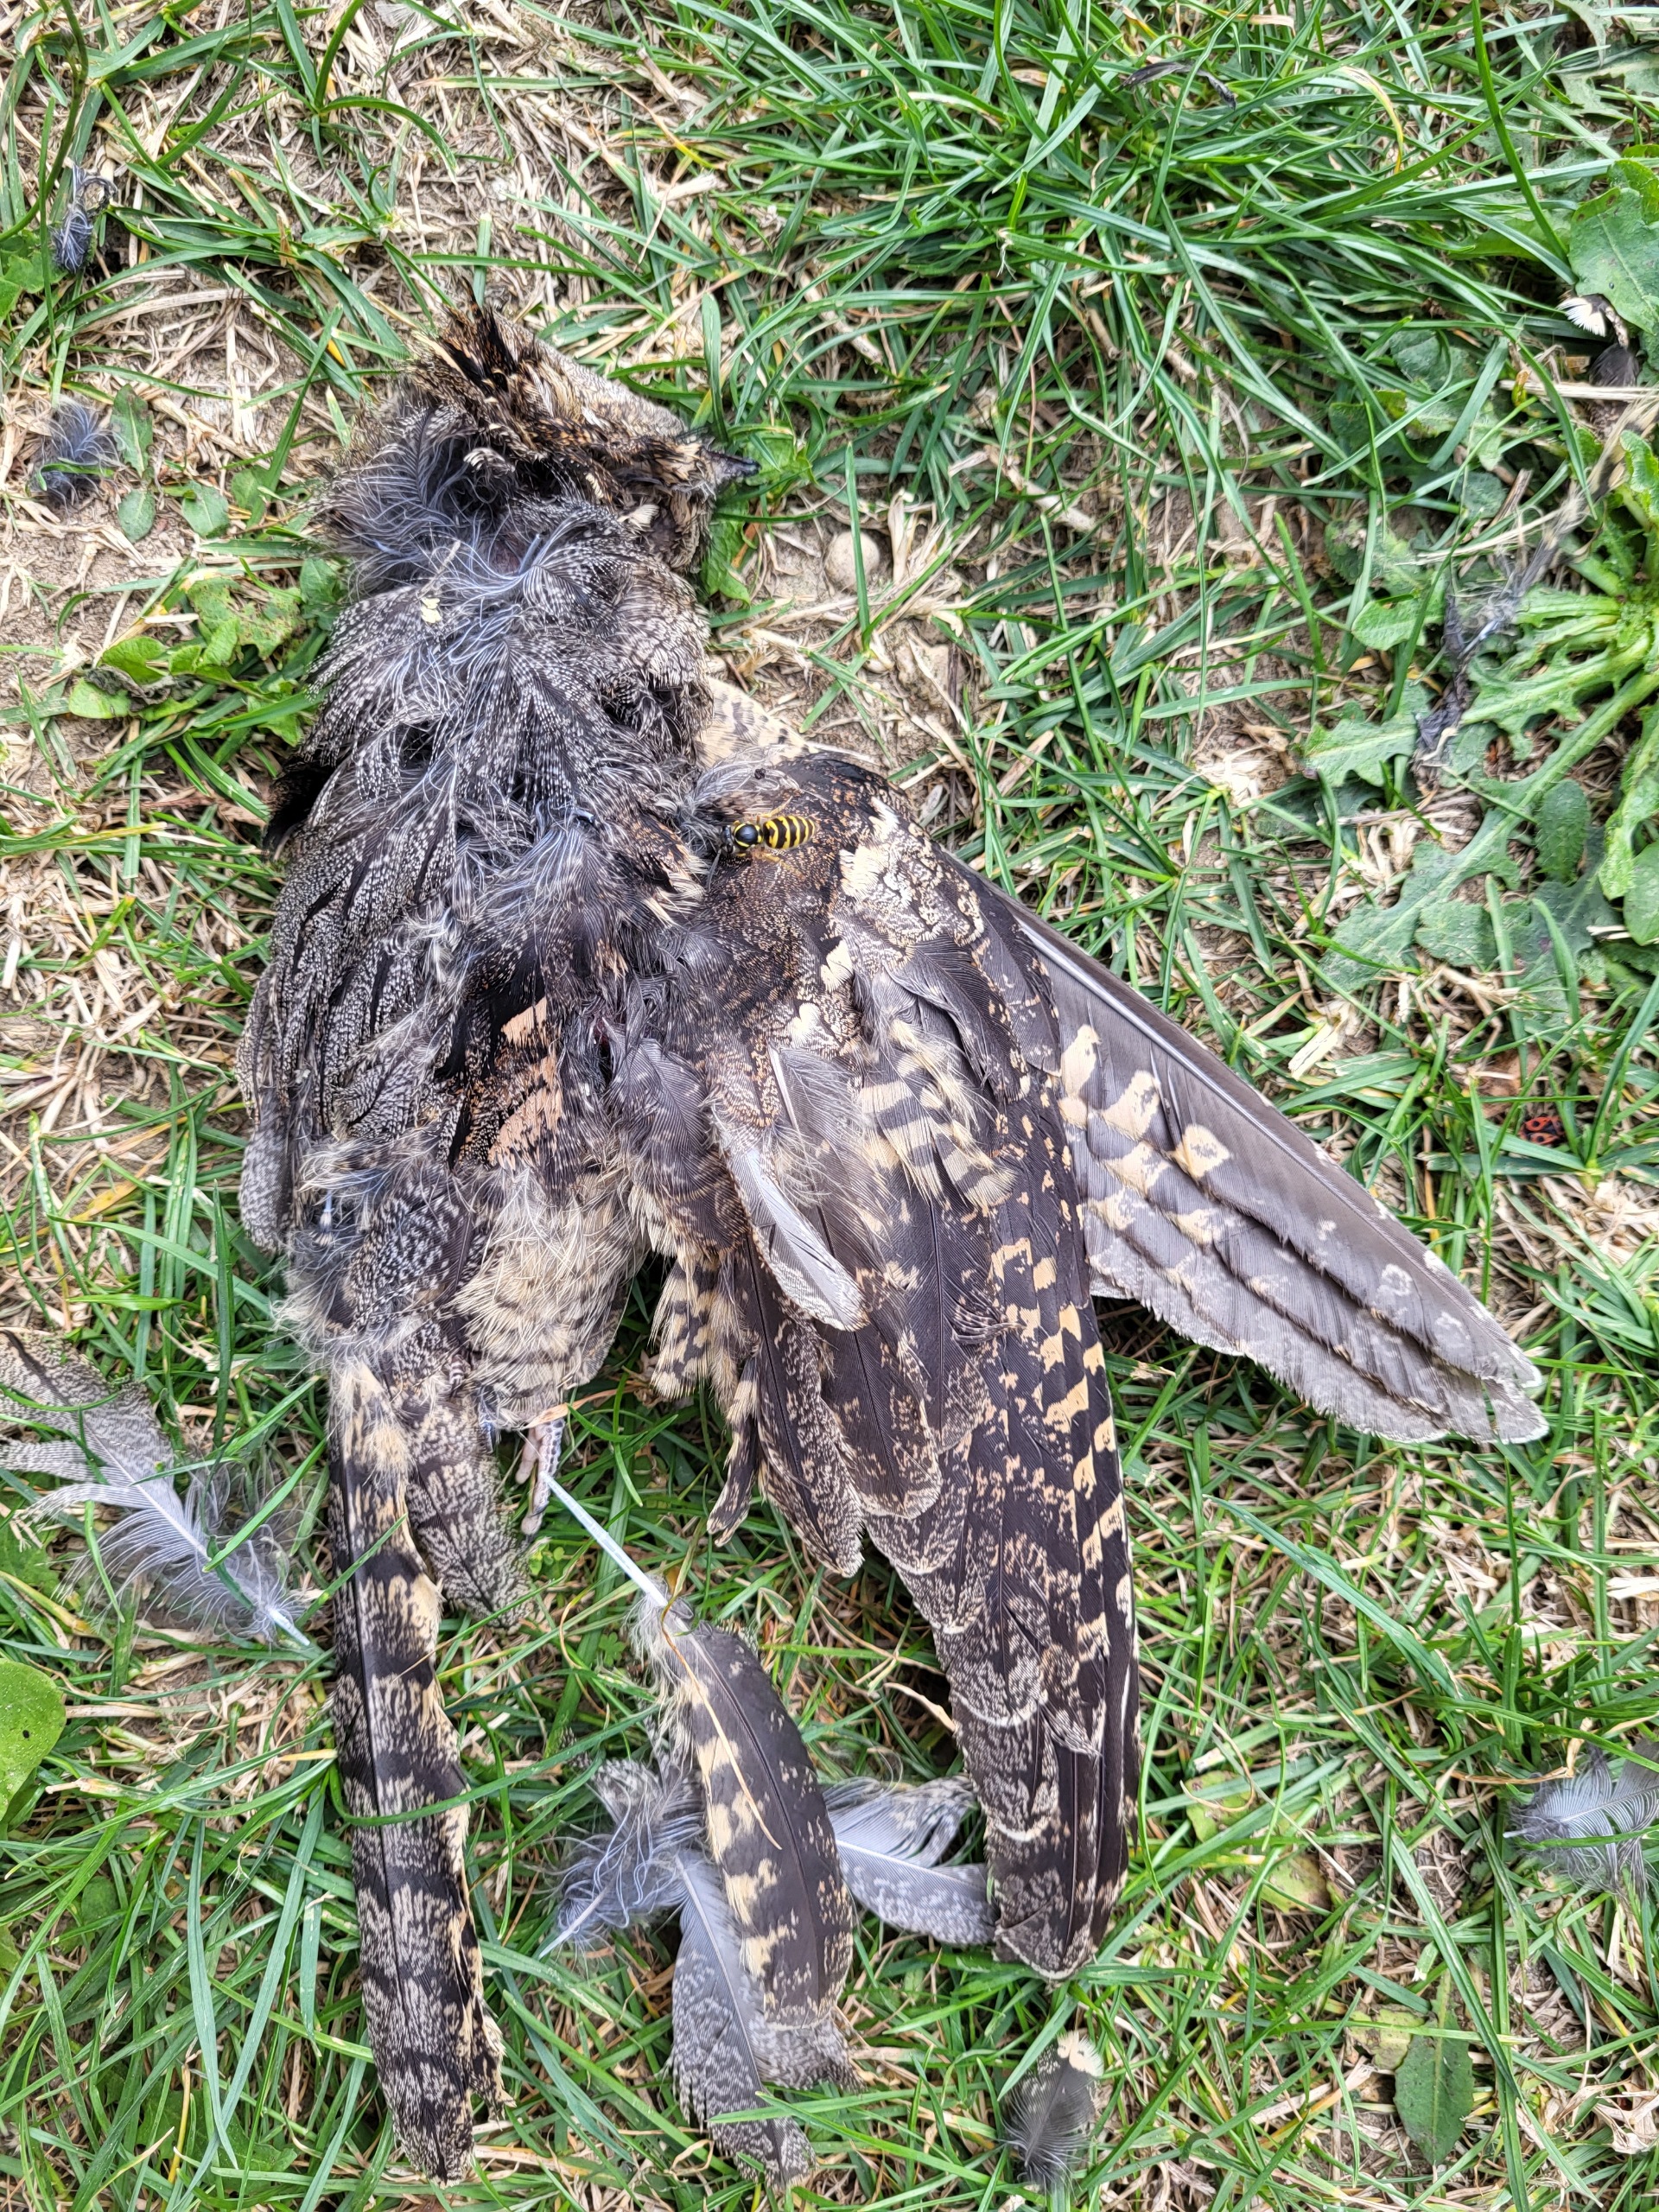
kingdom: Animalia
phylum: Chordata
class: Aves
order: Caprimulgiformes
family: Caprimulgidae
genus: Caprimulgus
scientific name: Caprimulgus europaeus
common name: Natravn
